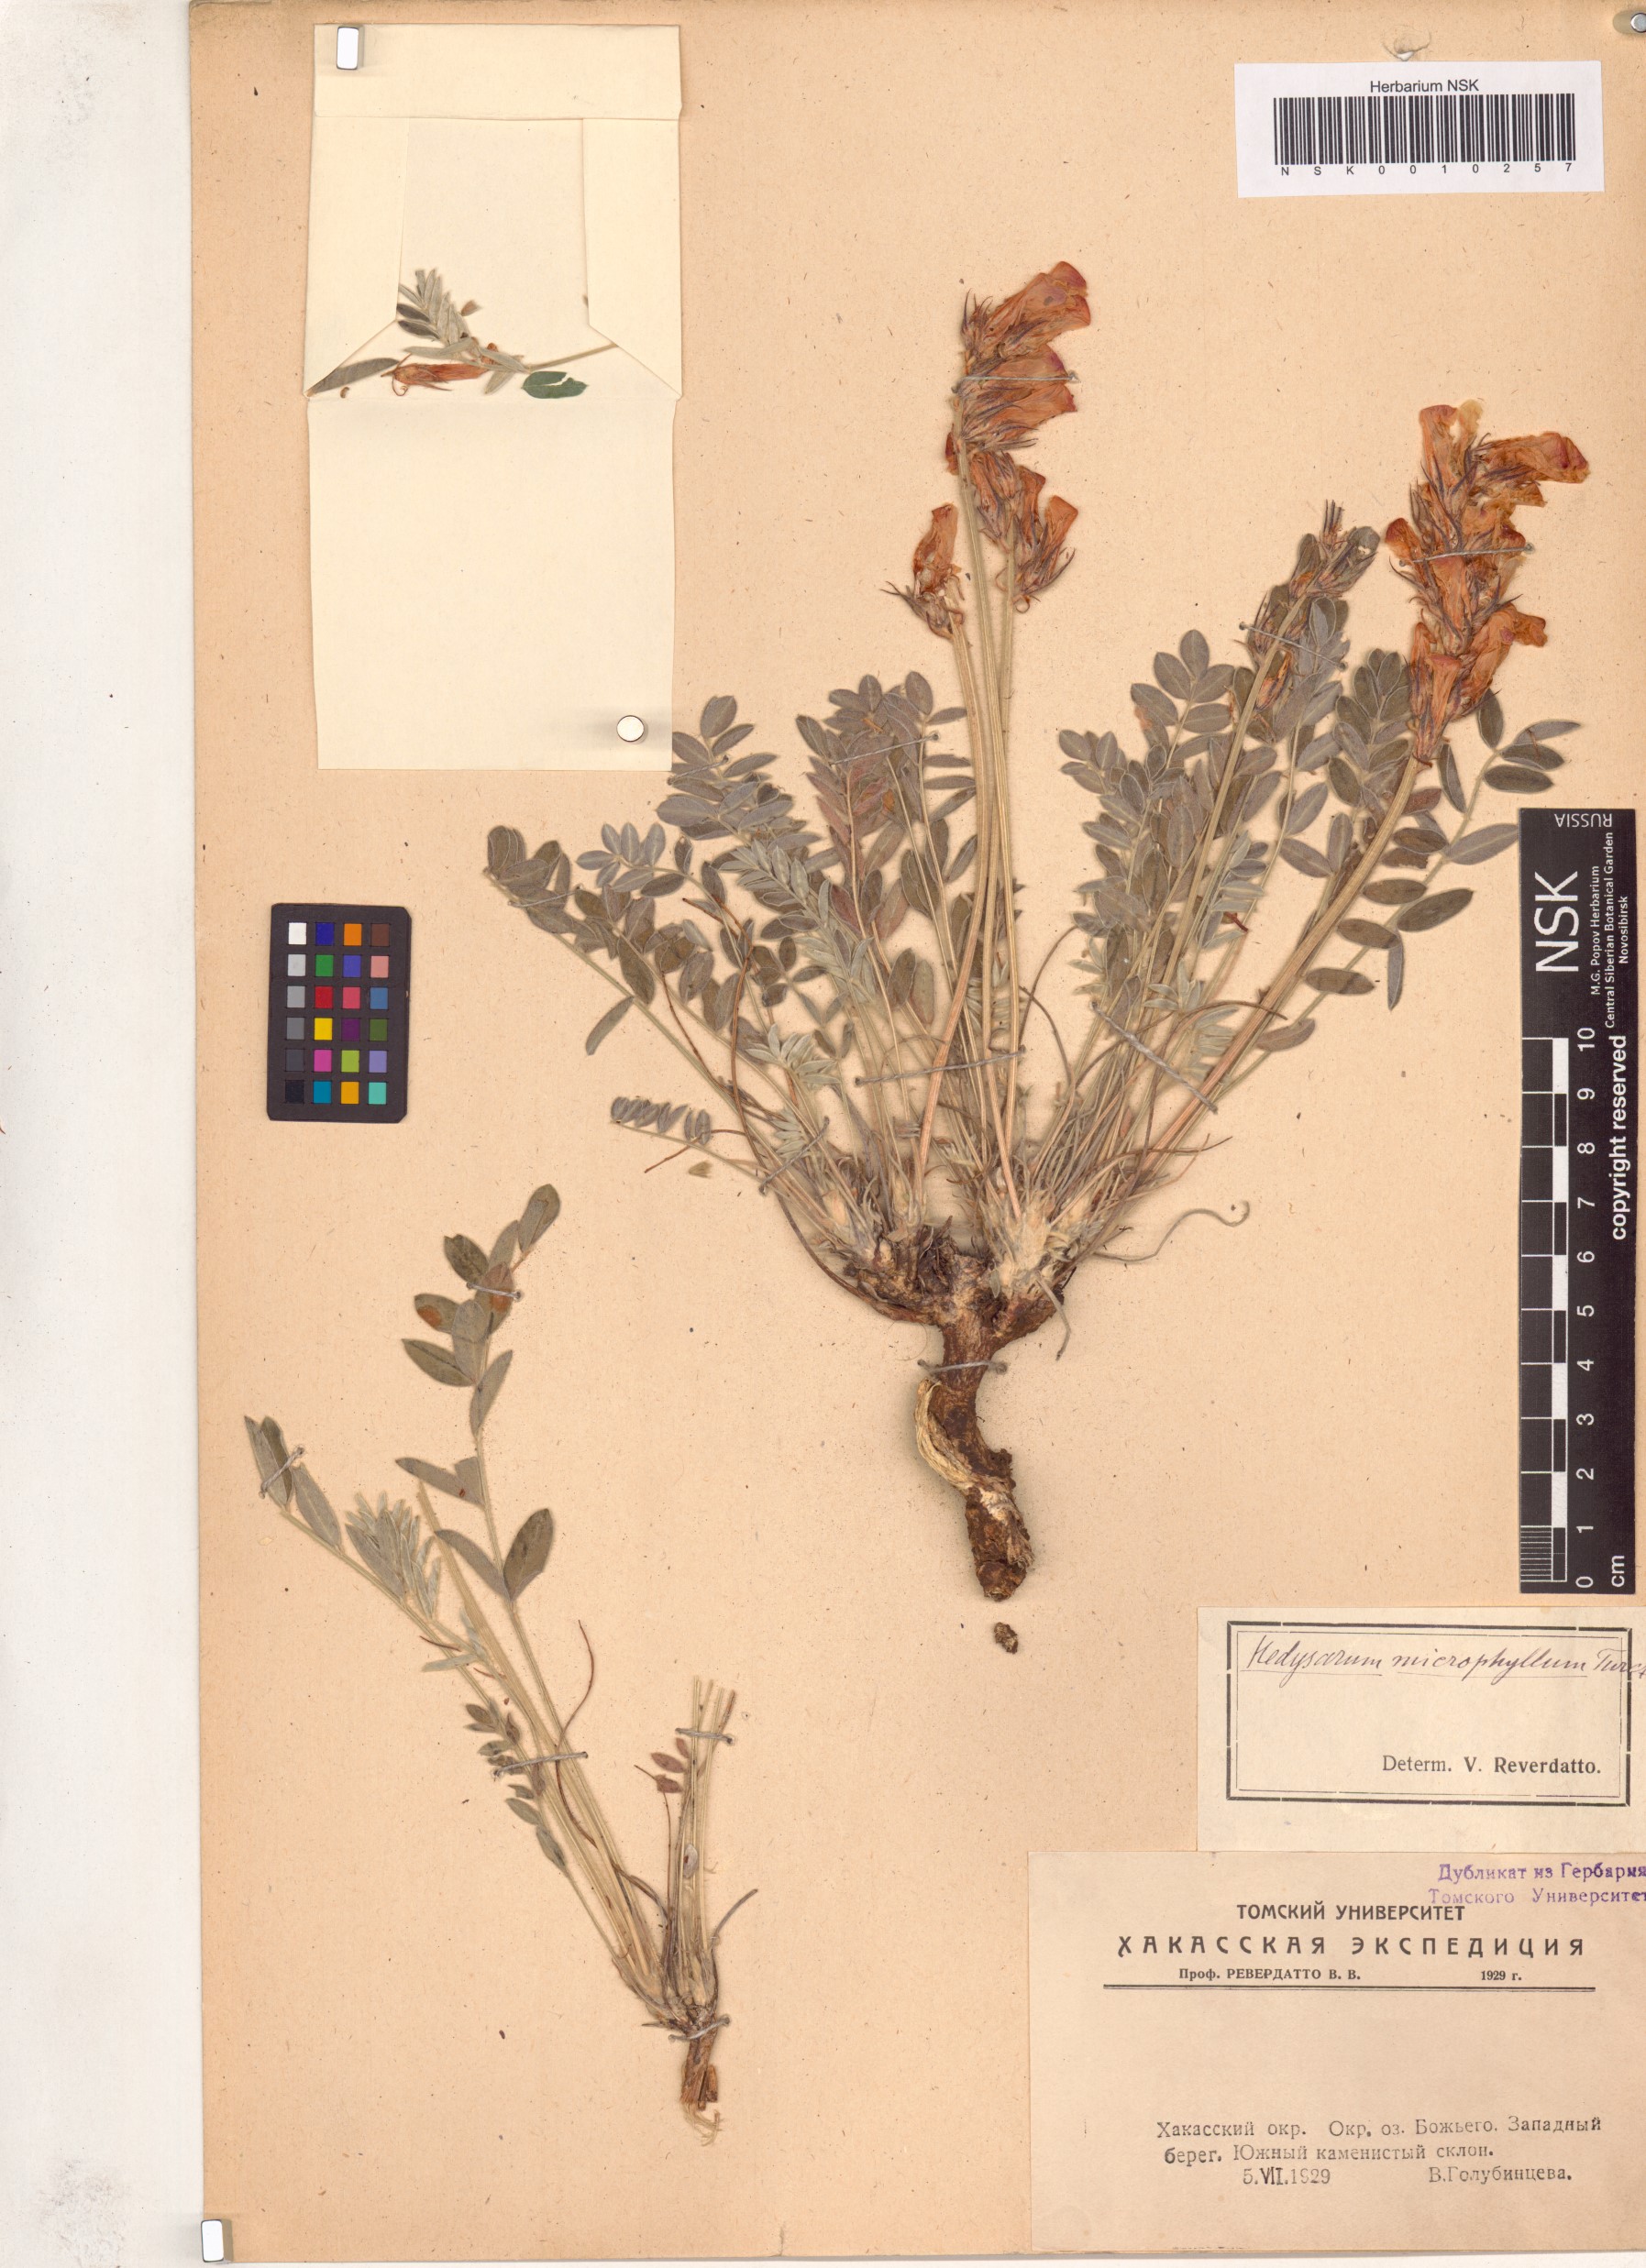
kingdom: Plantae
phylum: Tracheophyta
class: Magnoliopsida
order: Fabales
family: Fabaceae
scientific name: Fabaceae
